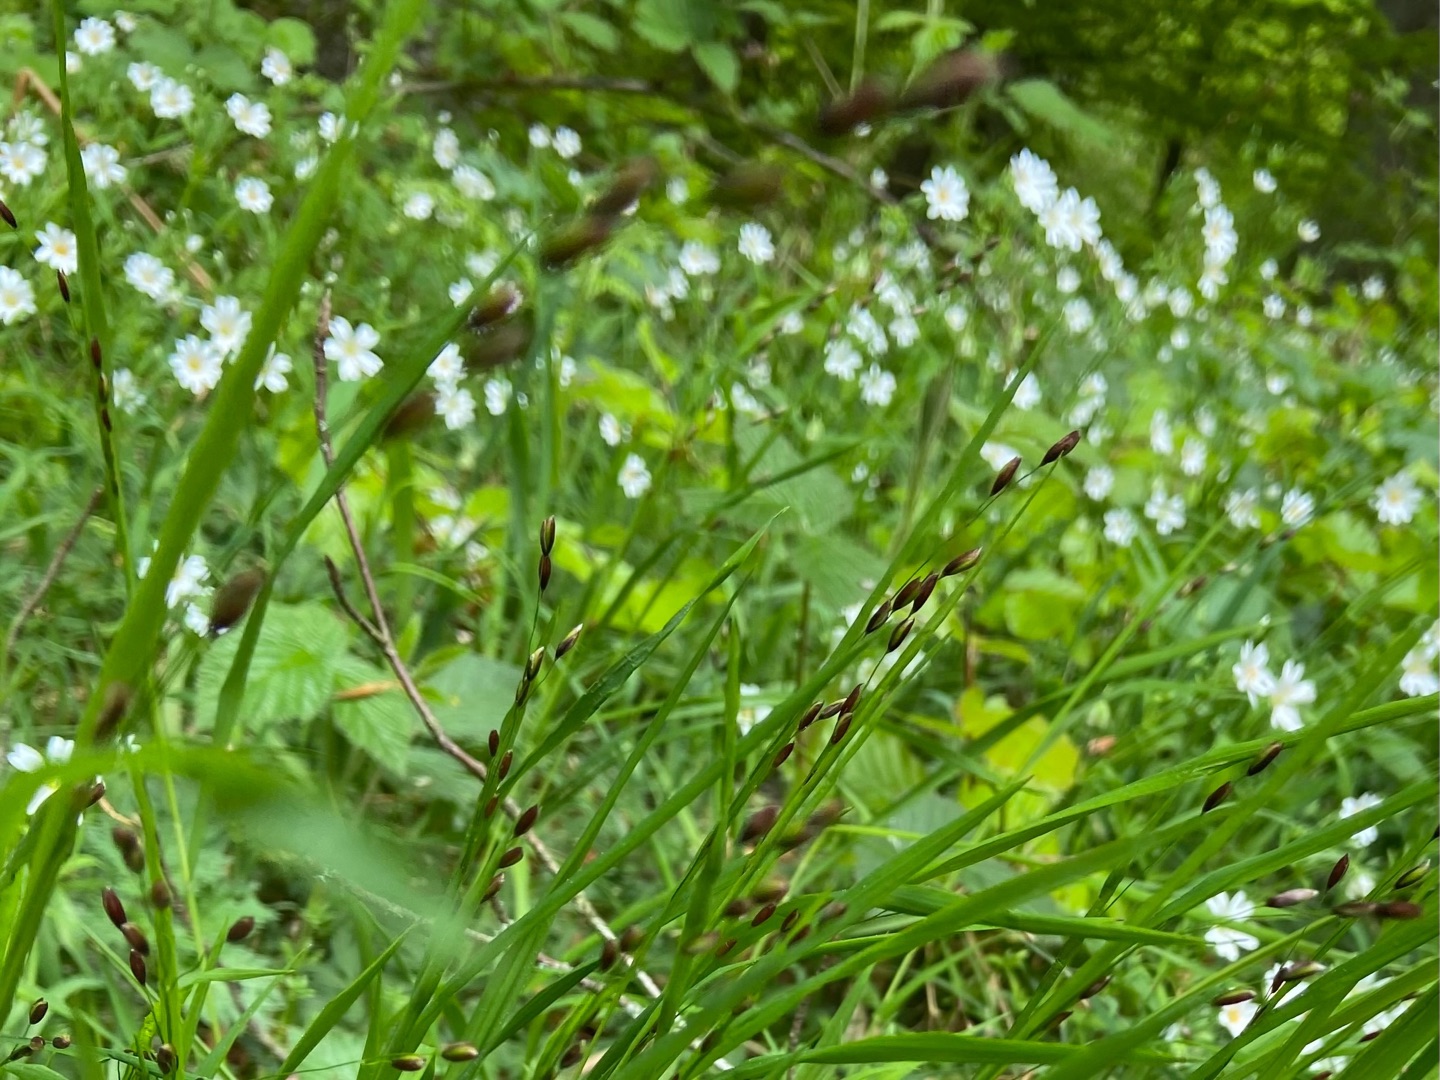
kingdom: Plantae
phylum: Tracheophyta
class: Magnoliopsida
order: Caryophyllales
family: Caryophyllaceae
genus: Rabelera
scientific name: Rabelera holostea
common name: Stor fladstjerne
